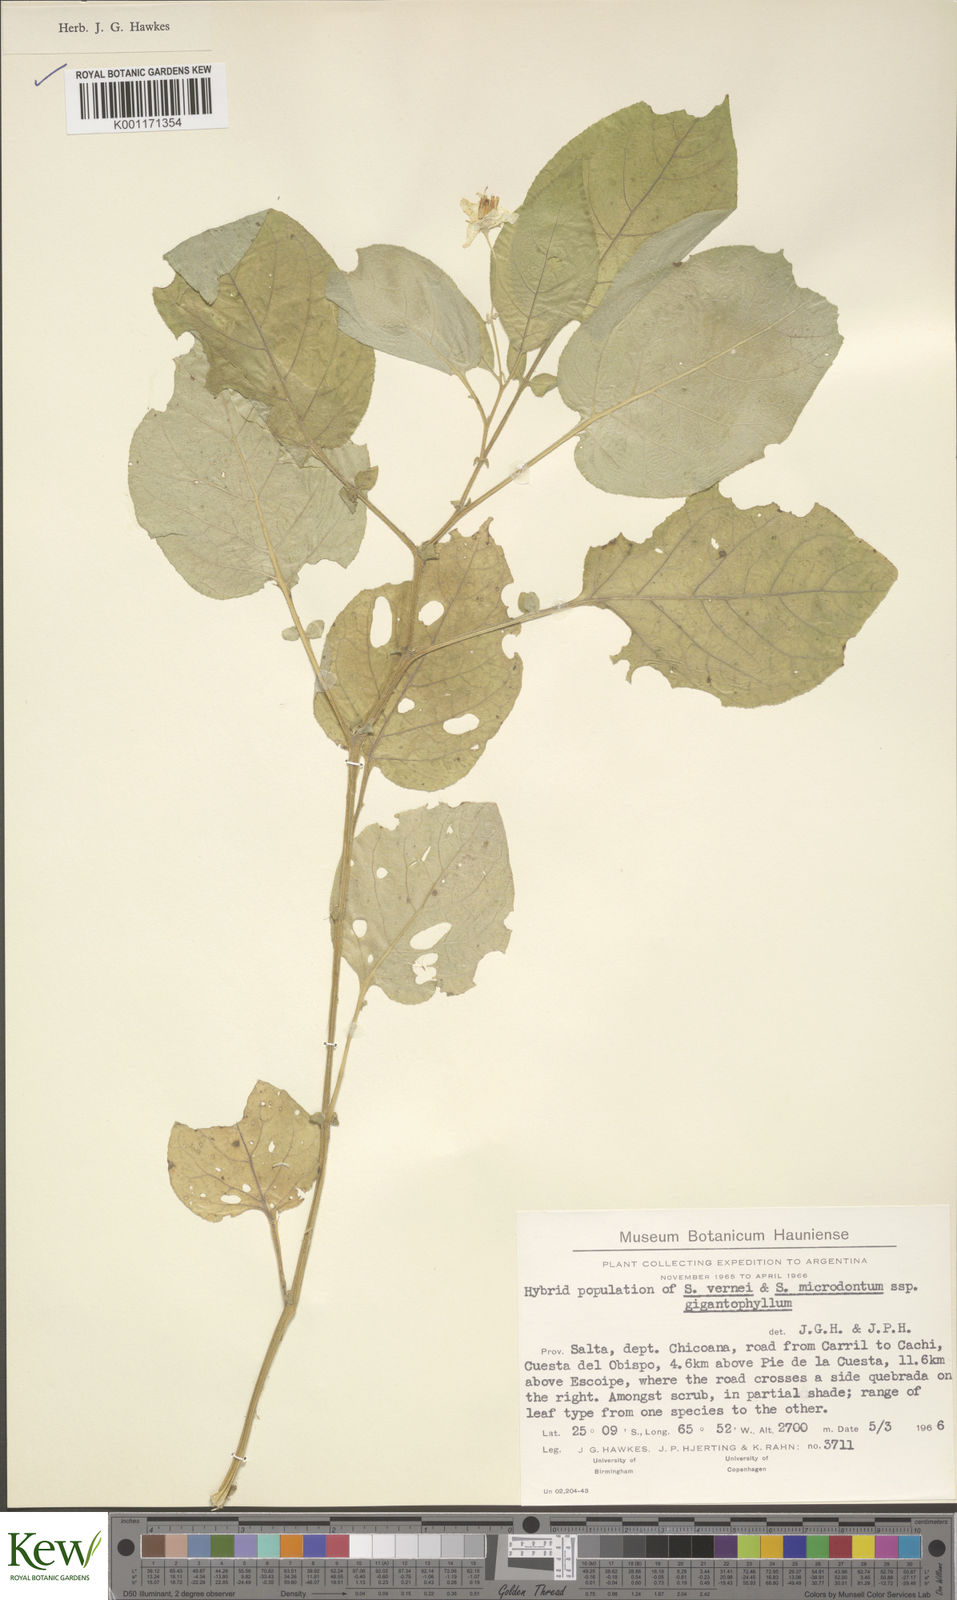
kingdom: Plantae
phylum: Tracheophyta
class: Magnoliopsida
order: Solanales
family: Solanaceae
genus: Solanum
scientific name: Solanum microdontum
